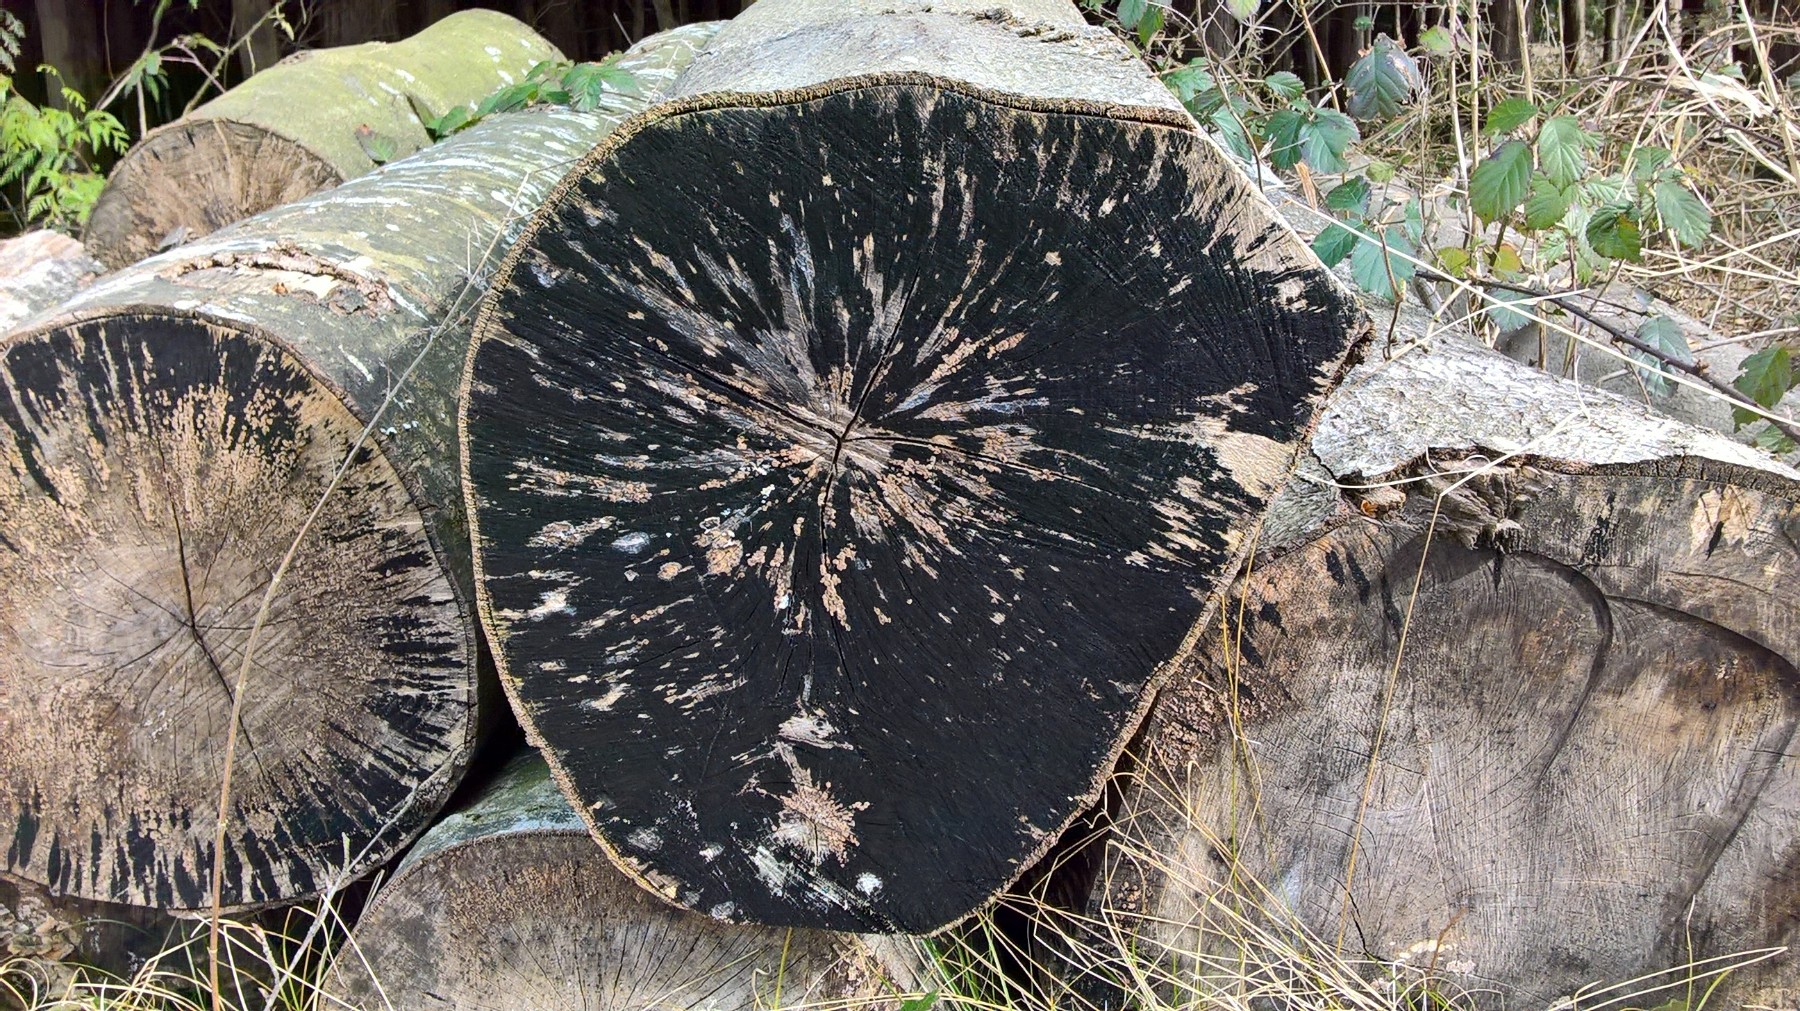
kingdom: Fungi
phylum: Ascomycota
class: Leotiomycetes
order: Helotiales
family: Helotiaceae
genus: Bispora
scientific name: Bispora pallescens
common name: måtte-snitskive
